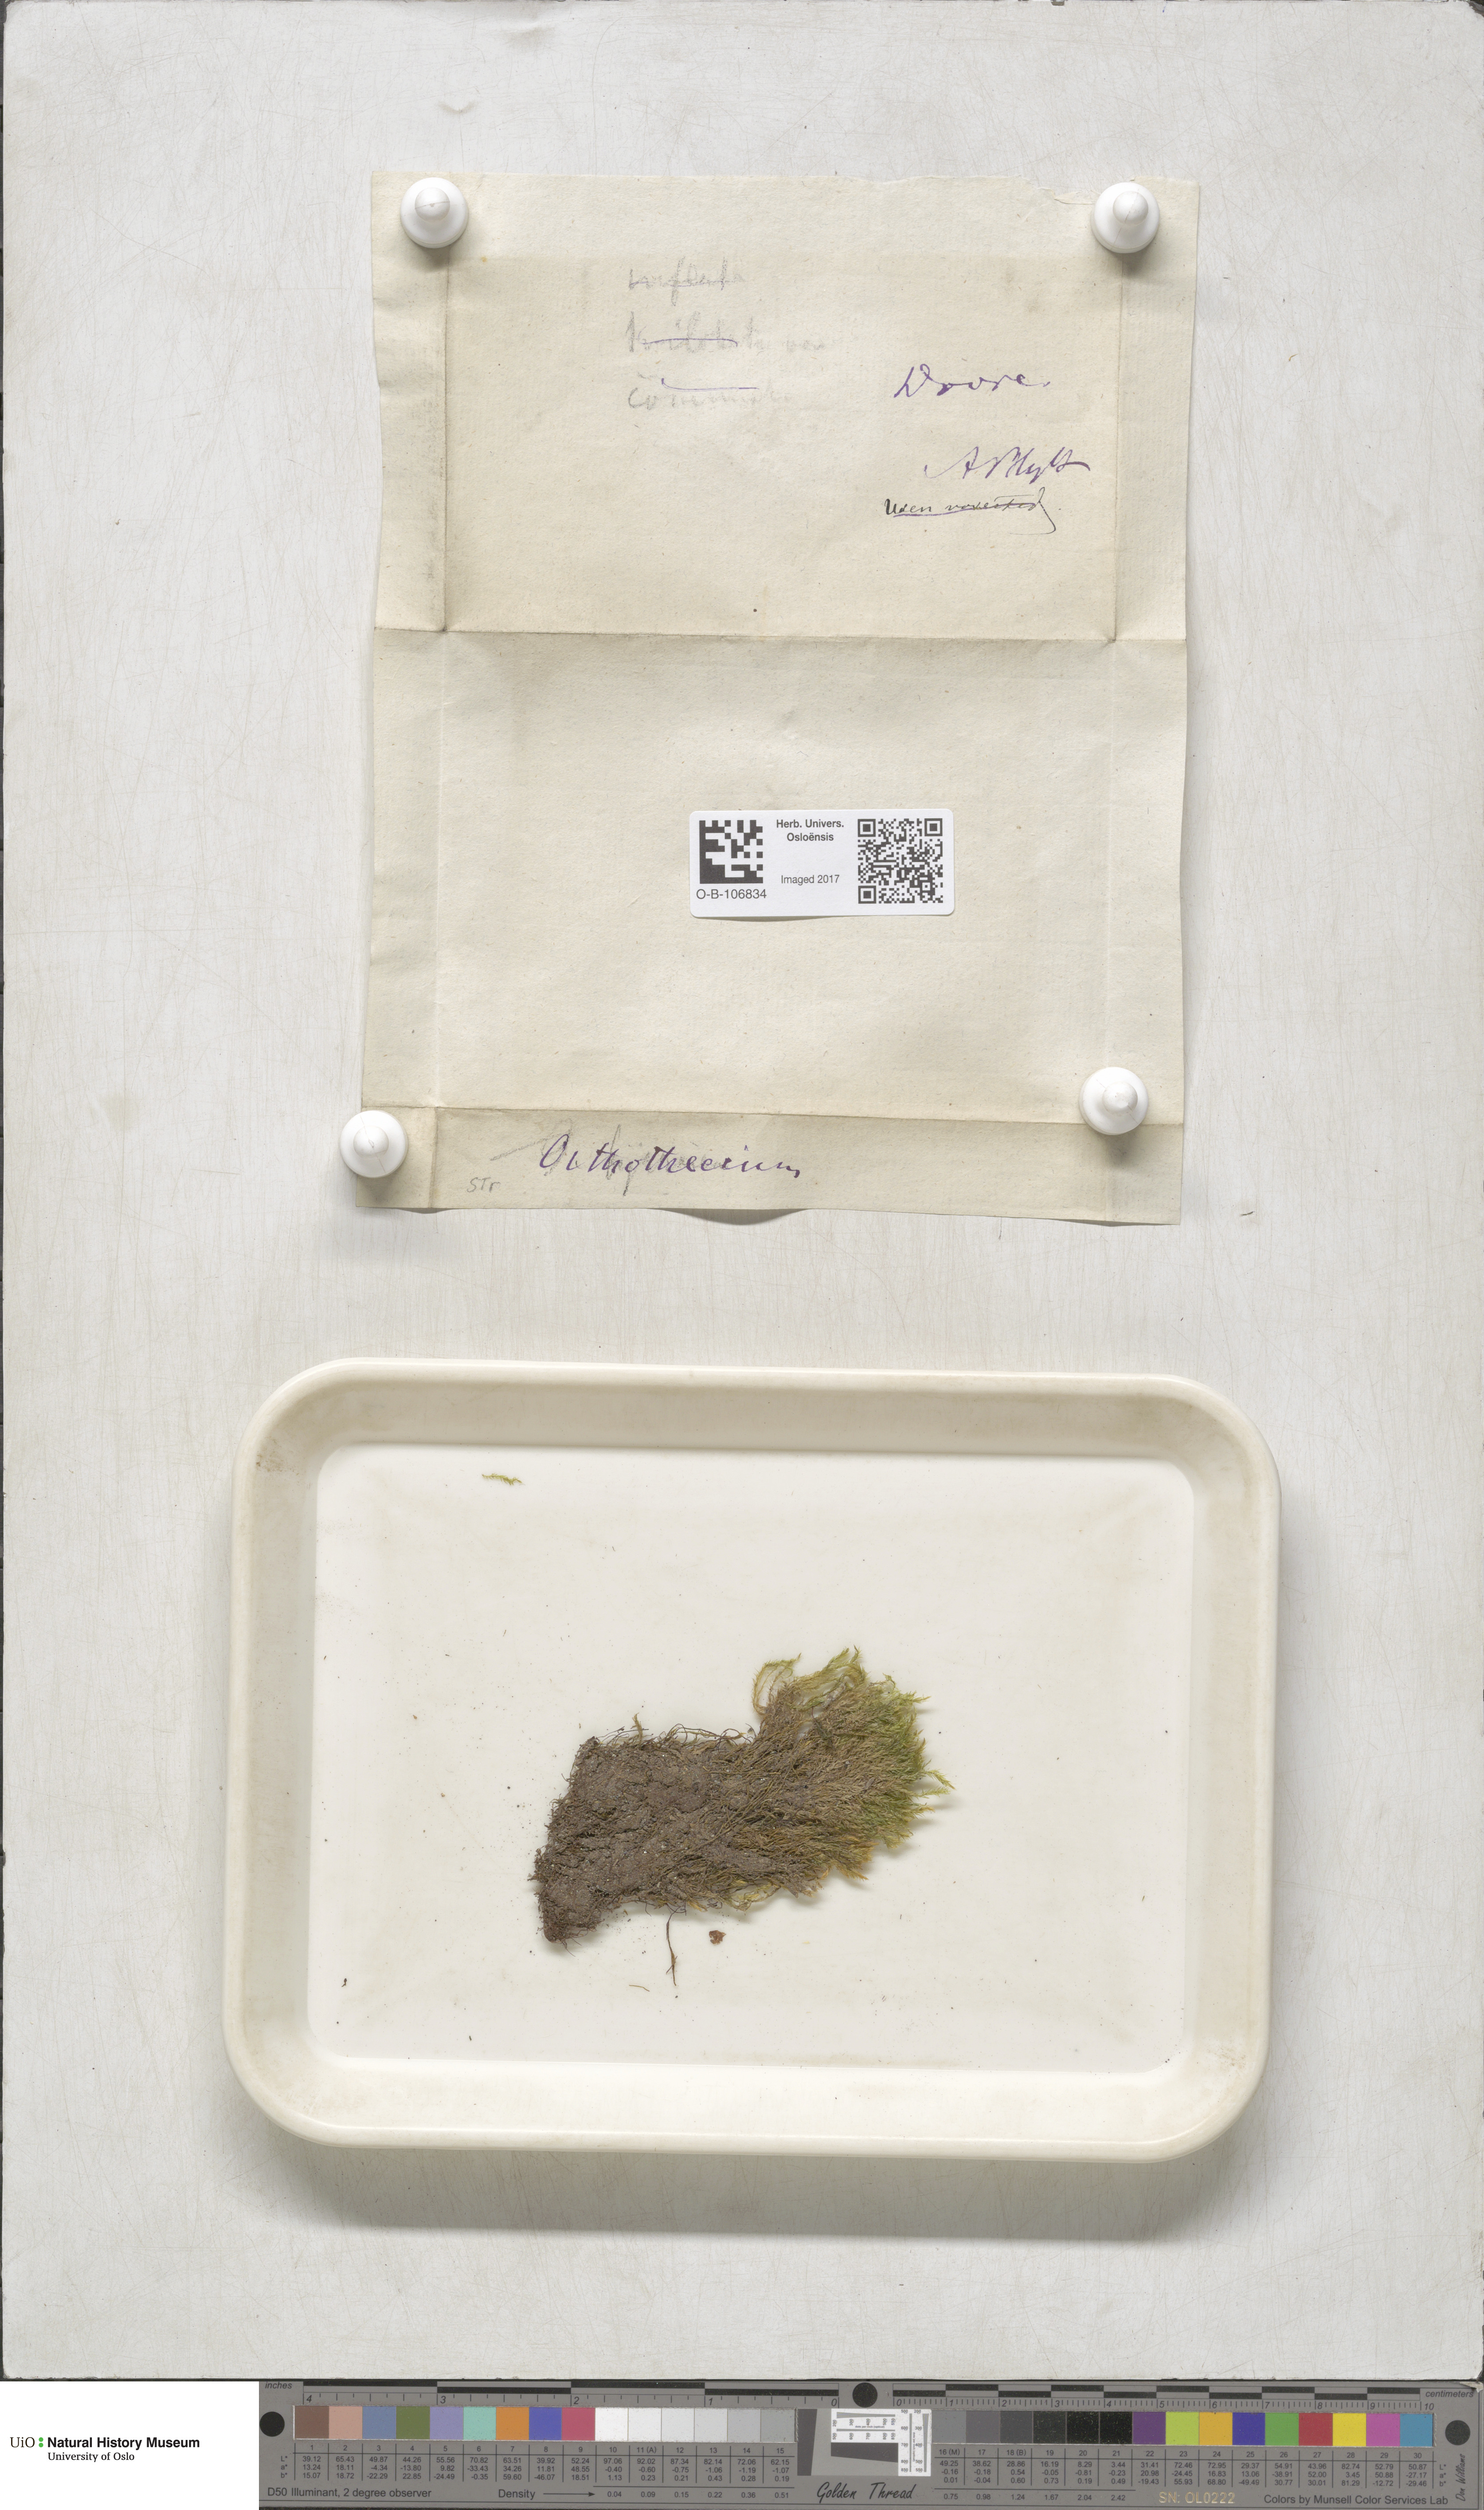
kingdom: Plantae
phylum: Bryophyta
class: Bryopsida
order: Hypnales
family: Plagiotheciaceae
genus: Orthothecium
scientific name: Orthothecium
